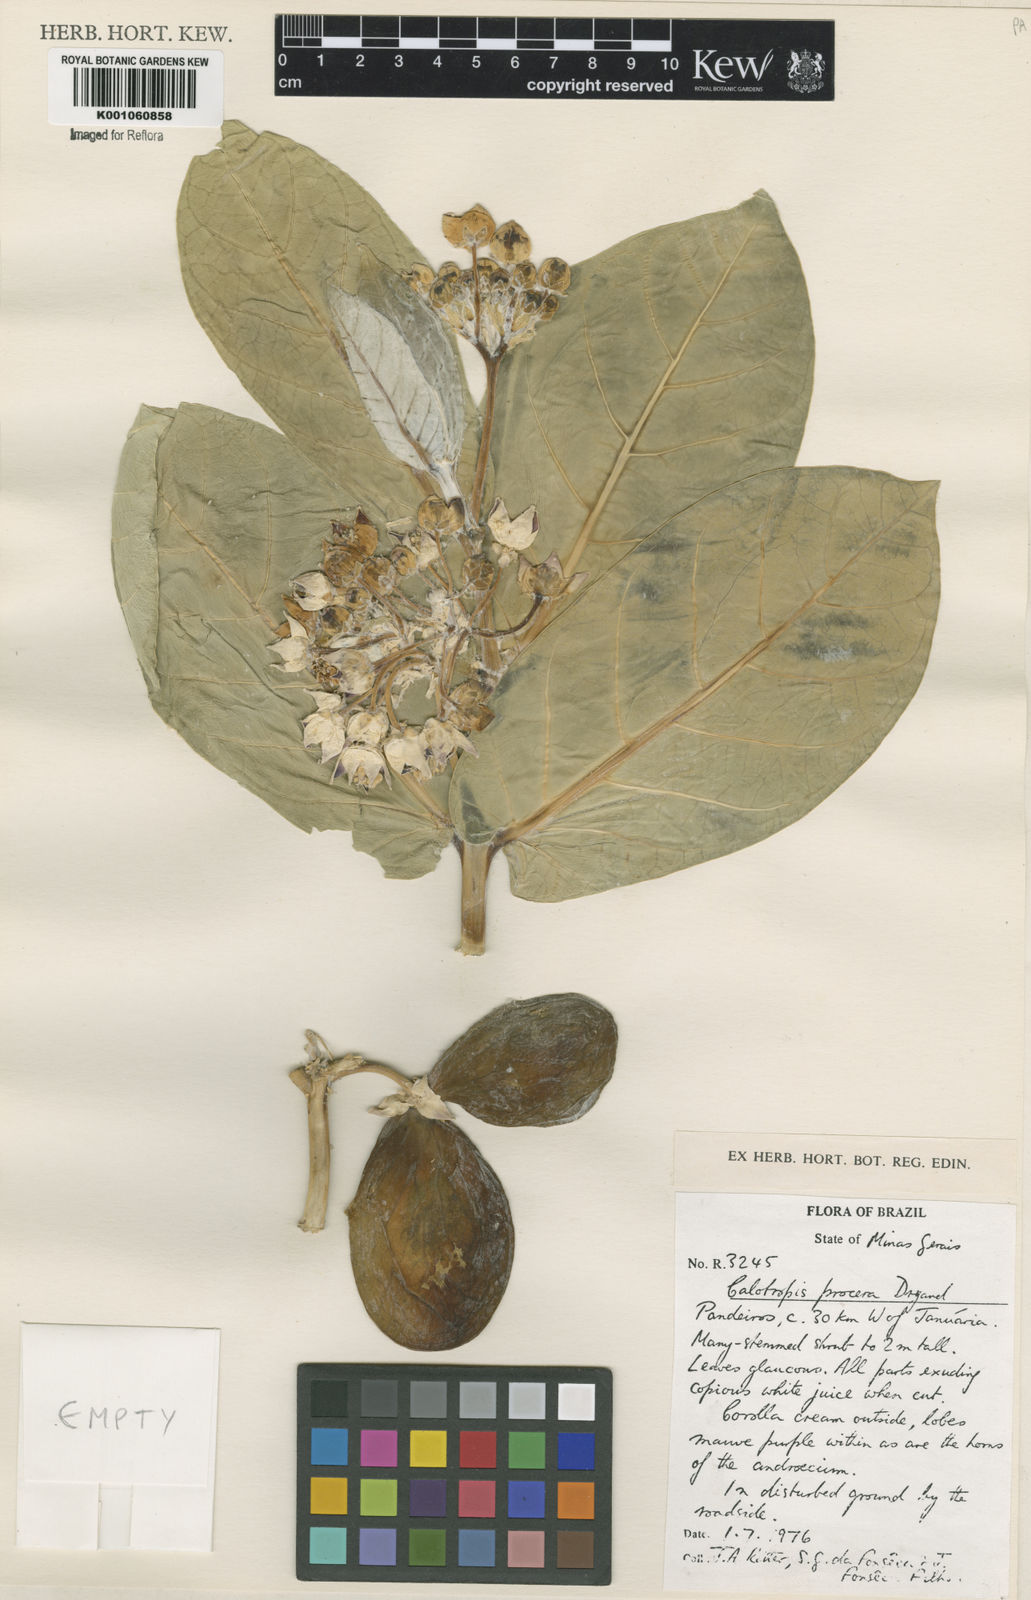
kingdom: Plantae
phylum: Tracheophyta
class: Magnoliopsida
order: Gentianales
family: Apocynaceae
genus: Calotropis
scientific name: Calotropis procera
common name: Roostertree
